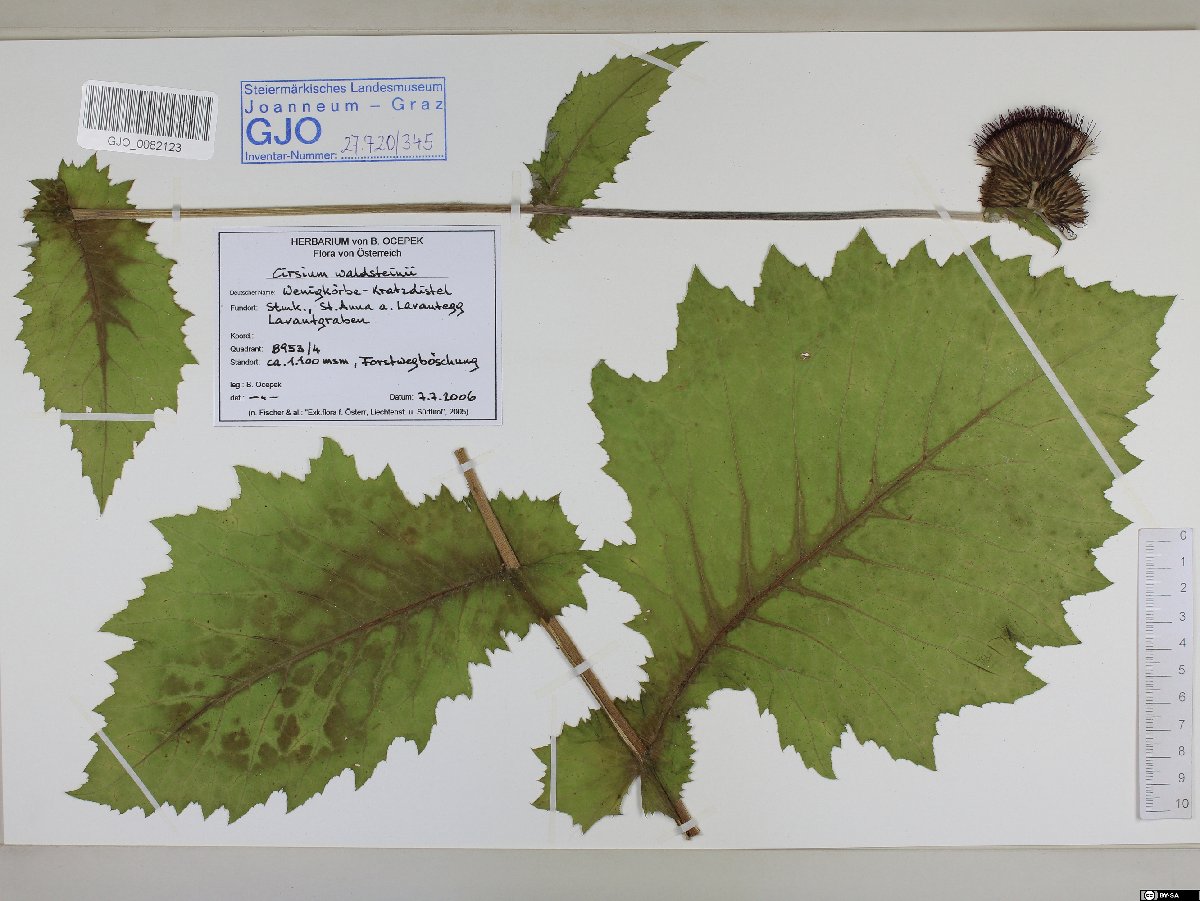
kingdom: Plantae
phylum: Tracheophyta
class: Magnoliopsida
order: Asterales
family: Asteraceae
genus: Cirsium
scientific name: Cirsium greimleri
